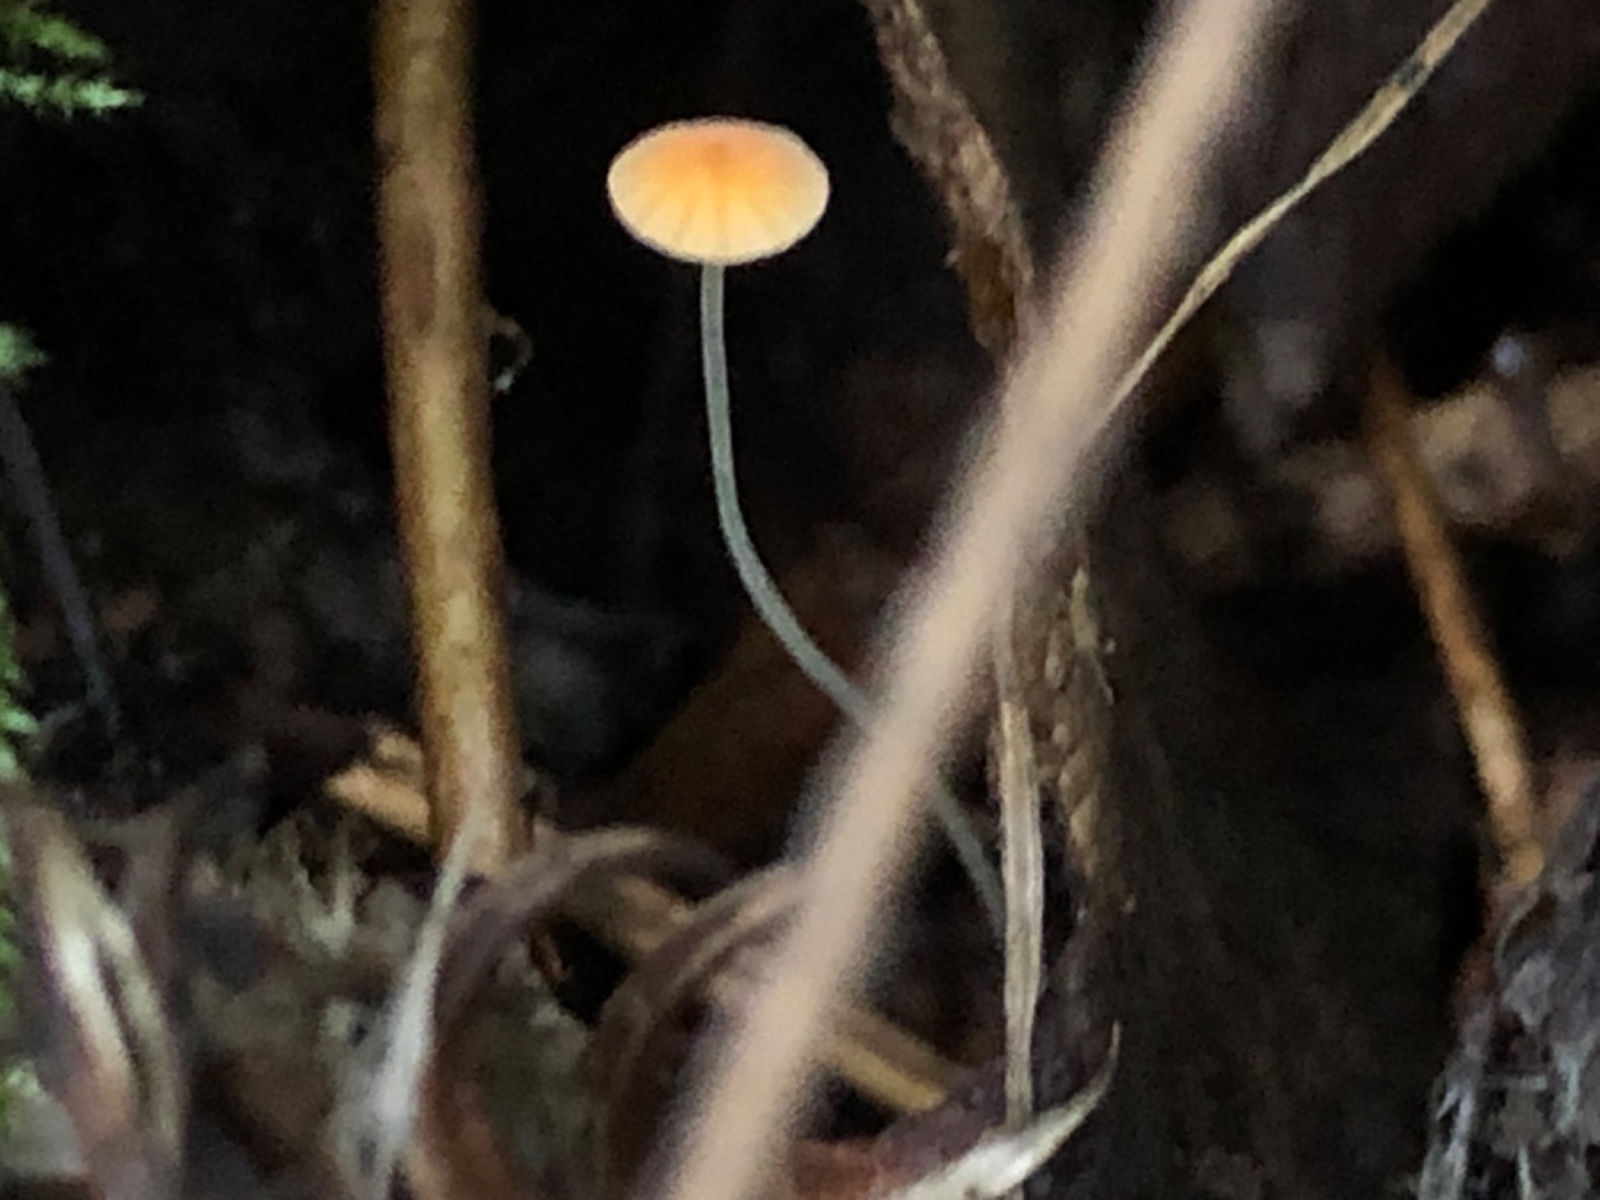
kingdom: Fungi
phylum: Basidiomycota
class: Agaricomycetes
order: Agaricales
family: Mycenaceae
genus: Mycena
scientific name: Mycena acicula
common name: orange huesvamp
